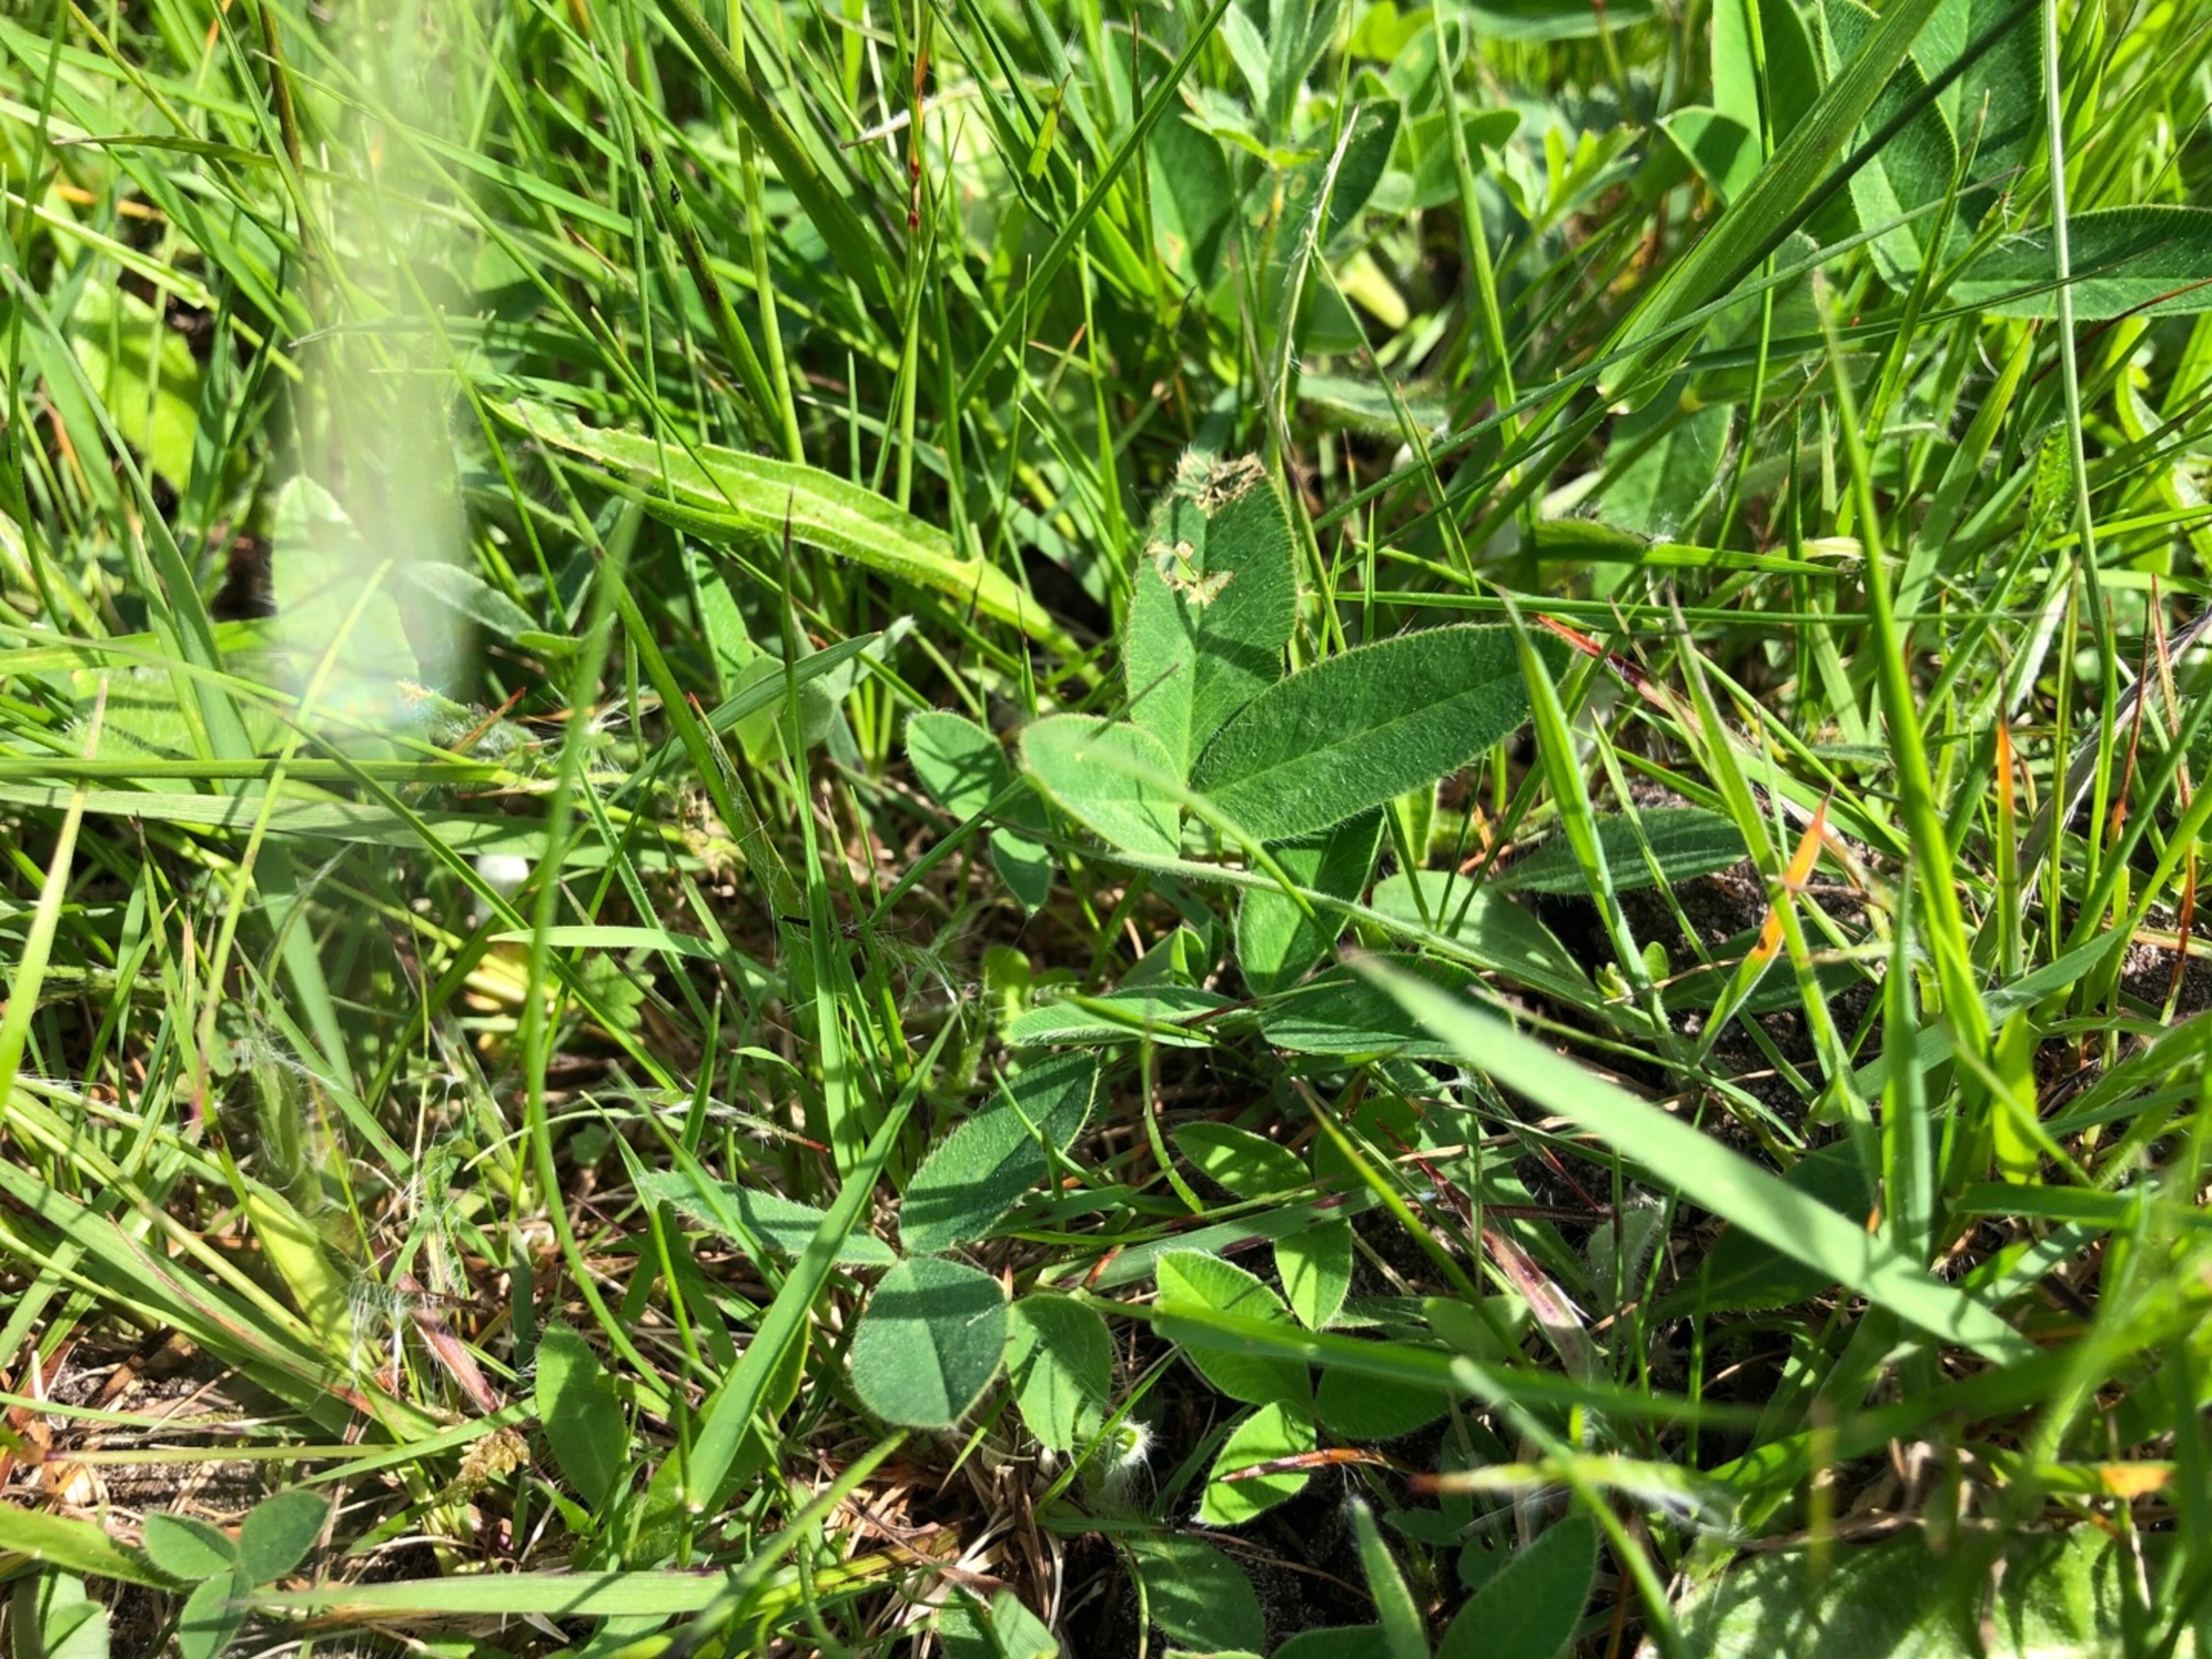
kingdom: Plantae
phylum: Tracheophyta
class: Magnoliopsida
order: Fabales
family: Fabaceae
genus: Trifolium
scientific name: Trifolium medium
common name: Bugtet kløver
